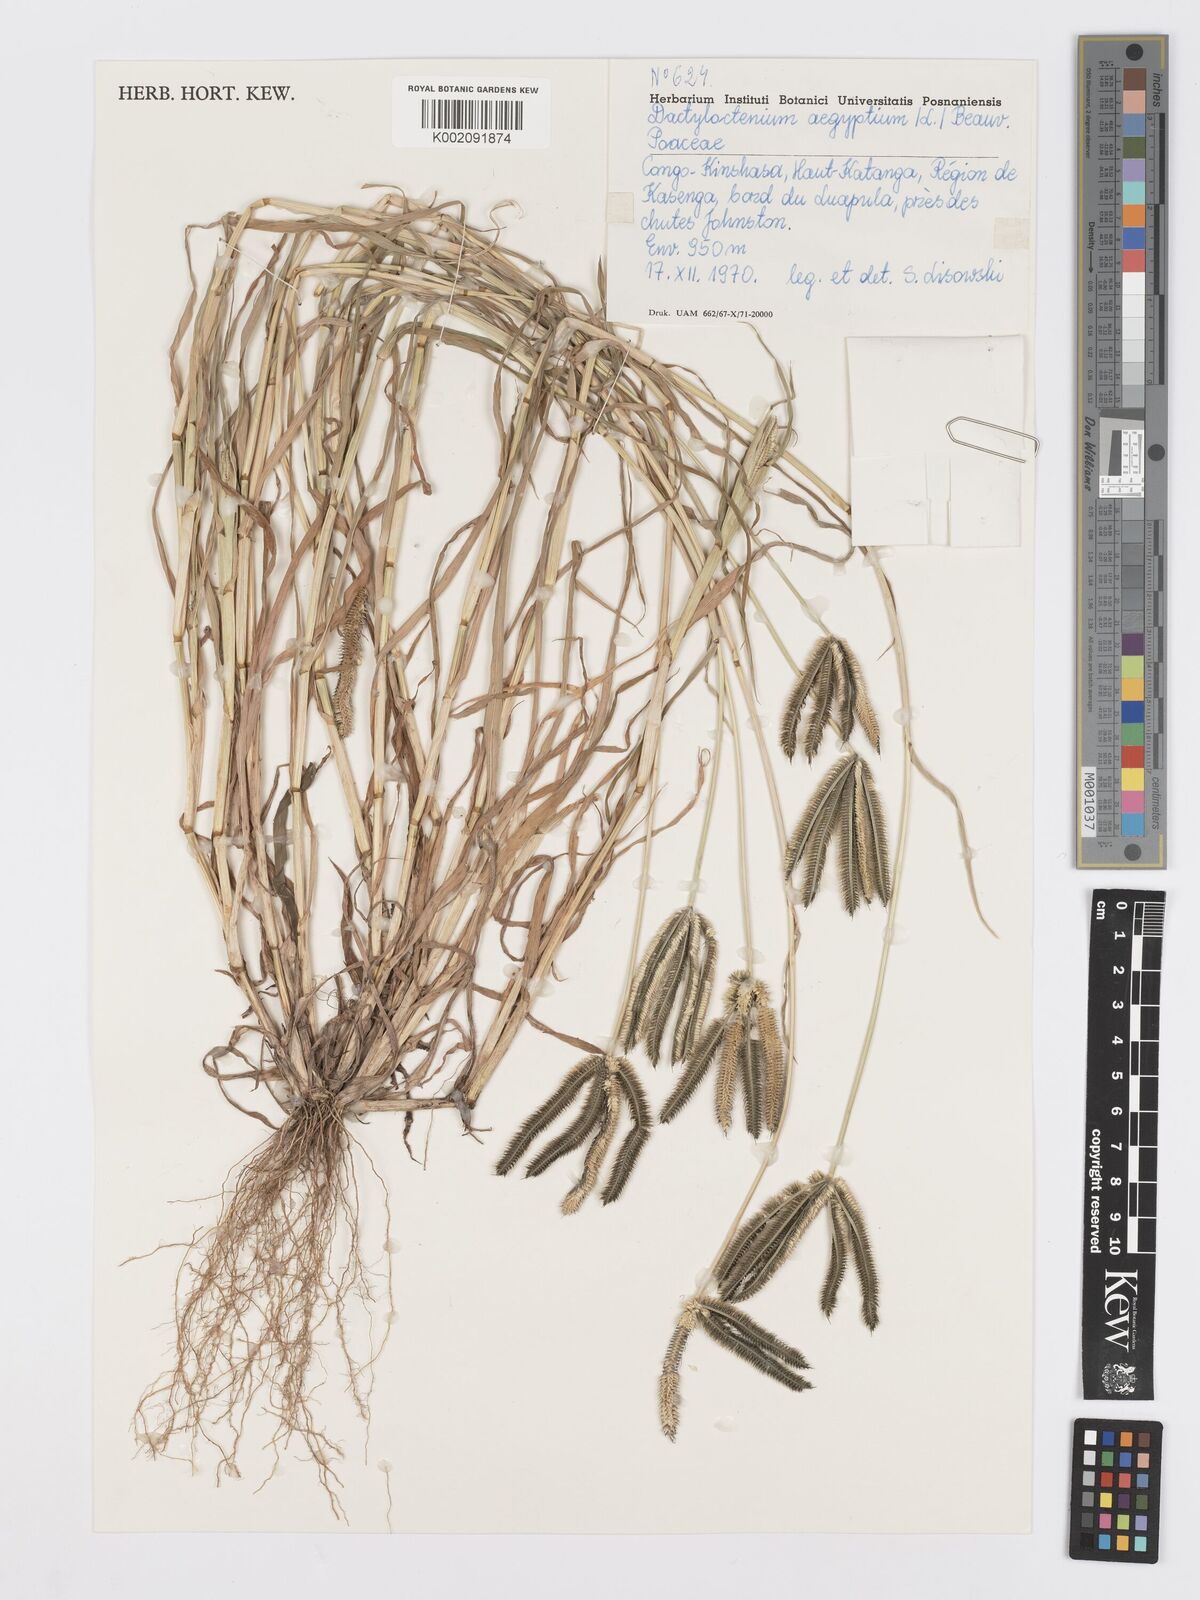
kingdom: Plantae
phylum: Tracheophyta
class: Liliopsida
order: Poales
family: Poaceae
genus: Dactyloctenium
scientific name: Dactyloctenium aegyptium
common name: Egyptian grass
